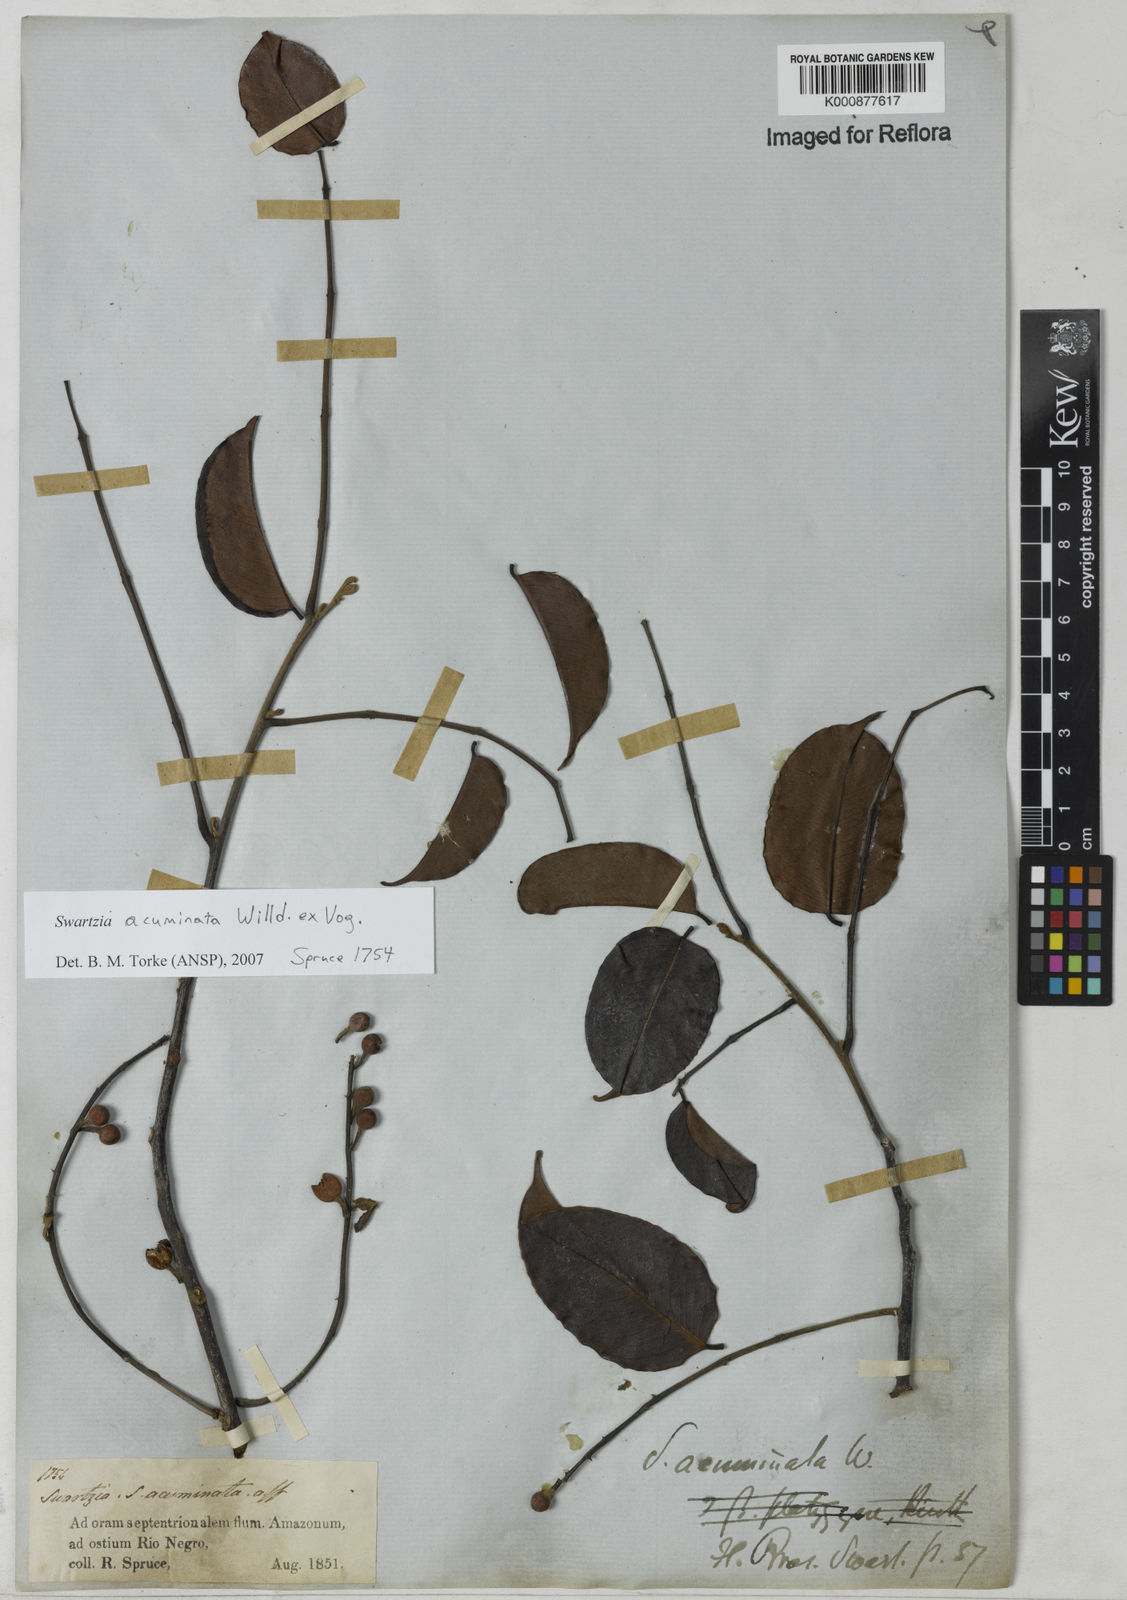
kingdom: Plantae
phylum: Tracheophyta
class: Magnoliopsida
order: Fabales
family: Fabaceae
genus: Swartzia
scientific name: Swartzia acuminata
